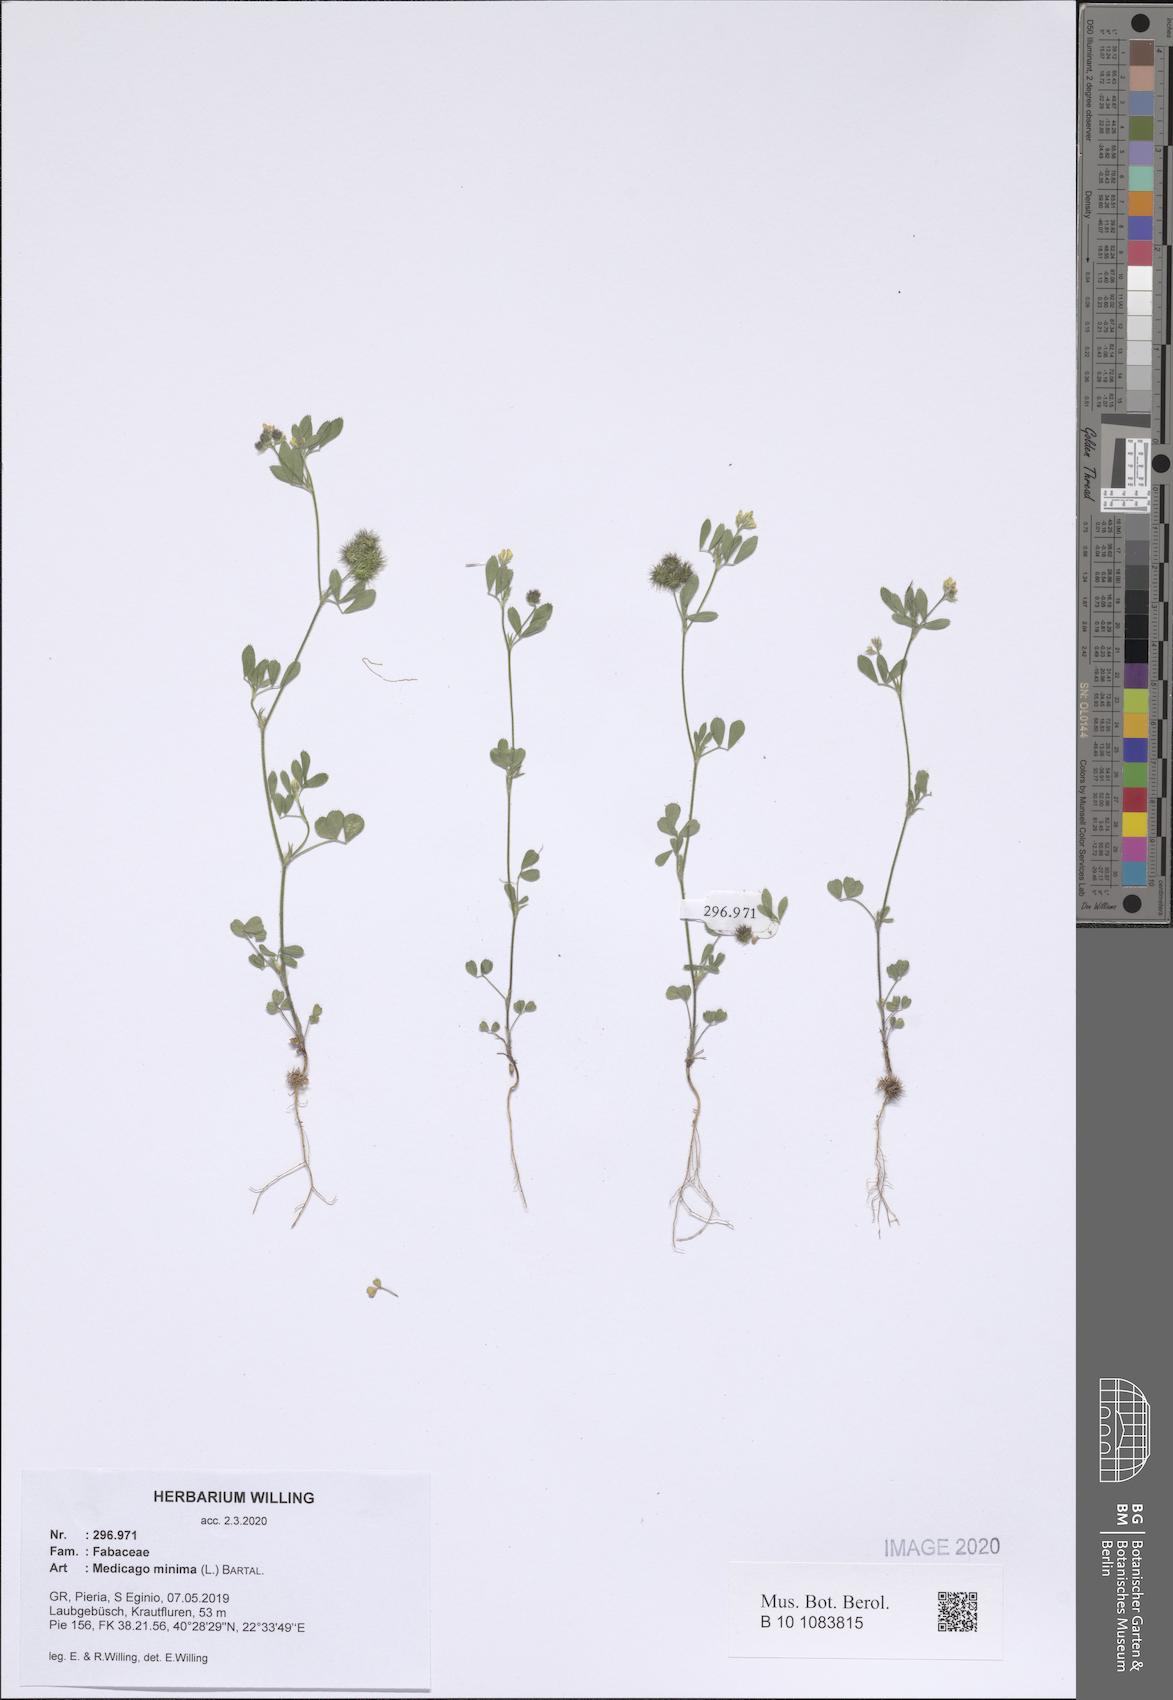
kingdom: Plantae
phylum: Tracheophyta
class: Magnoliopsida
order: Fabales
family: Fabaceae
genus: Medicago
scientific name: Medicago minima
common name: Little bur-clover
